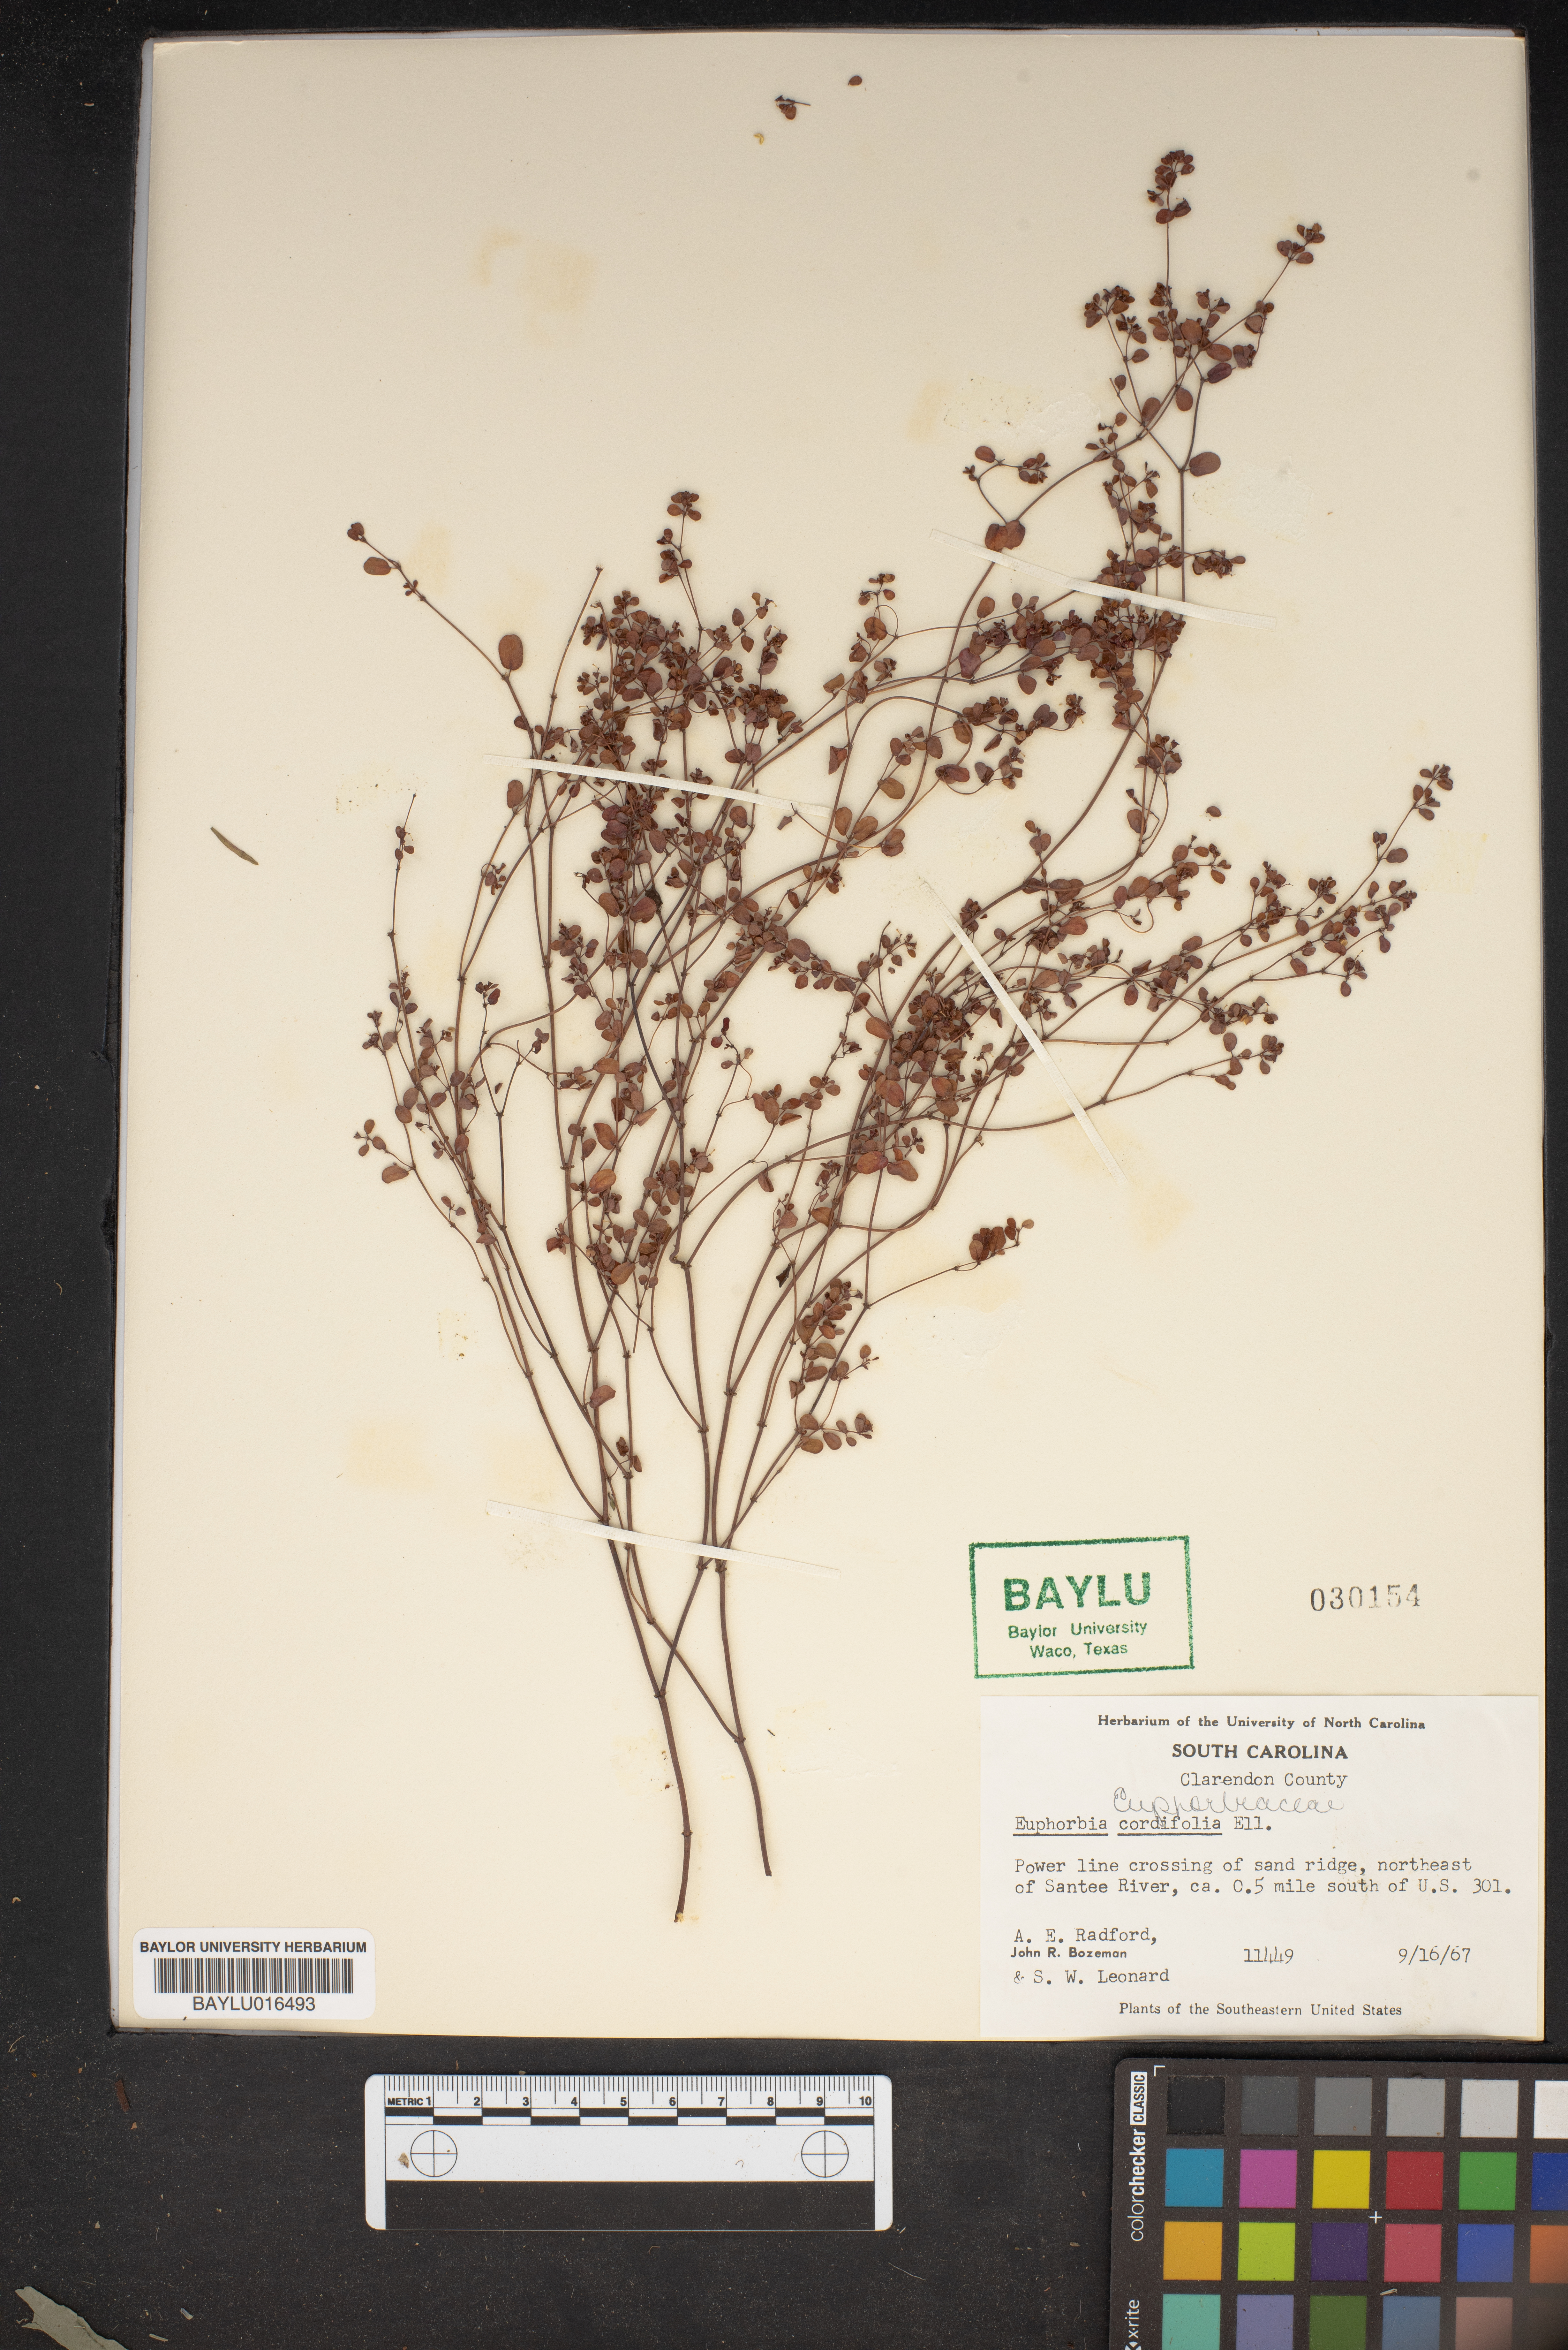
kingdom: Plantae
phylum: Tracheophyta
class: Magnoliopsida
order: Malpighiales
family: Euphorbiaceae
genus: Euphorbia
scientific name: Euphorbia cordifolia
